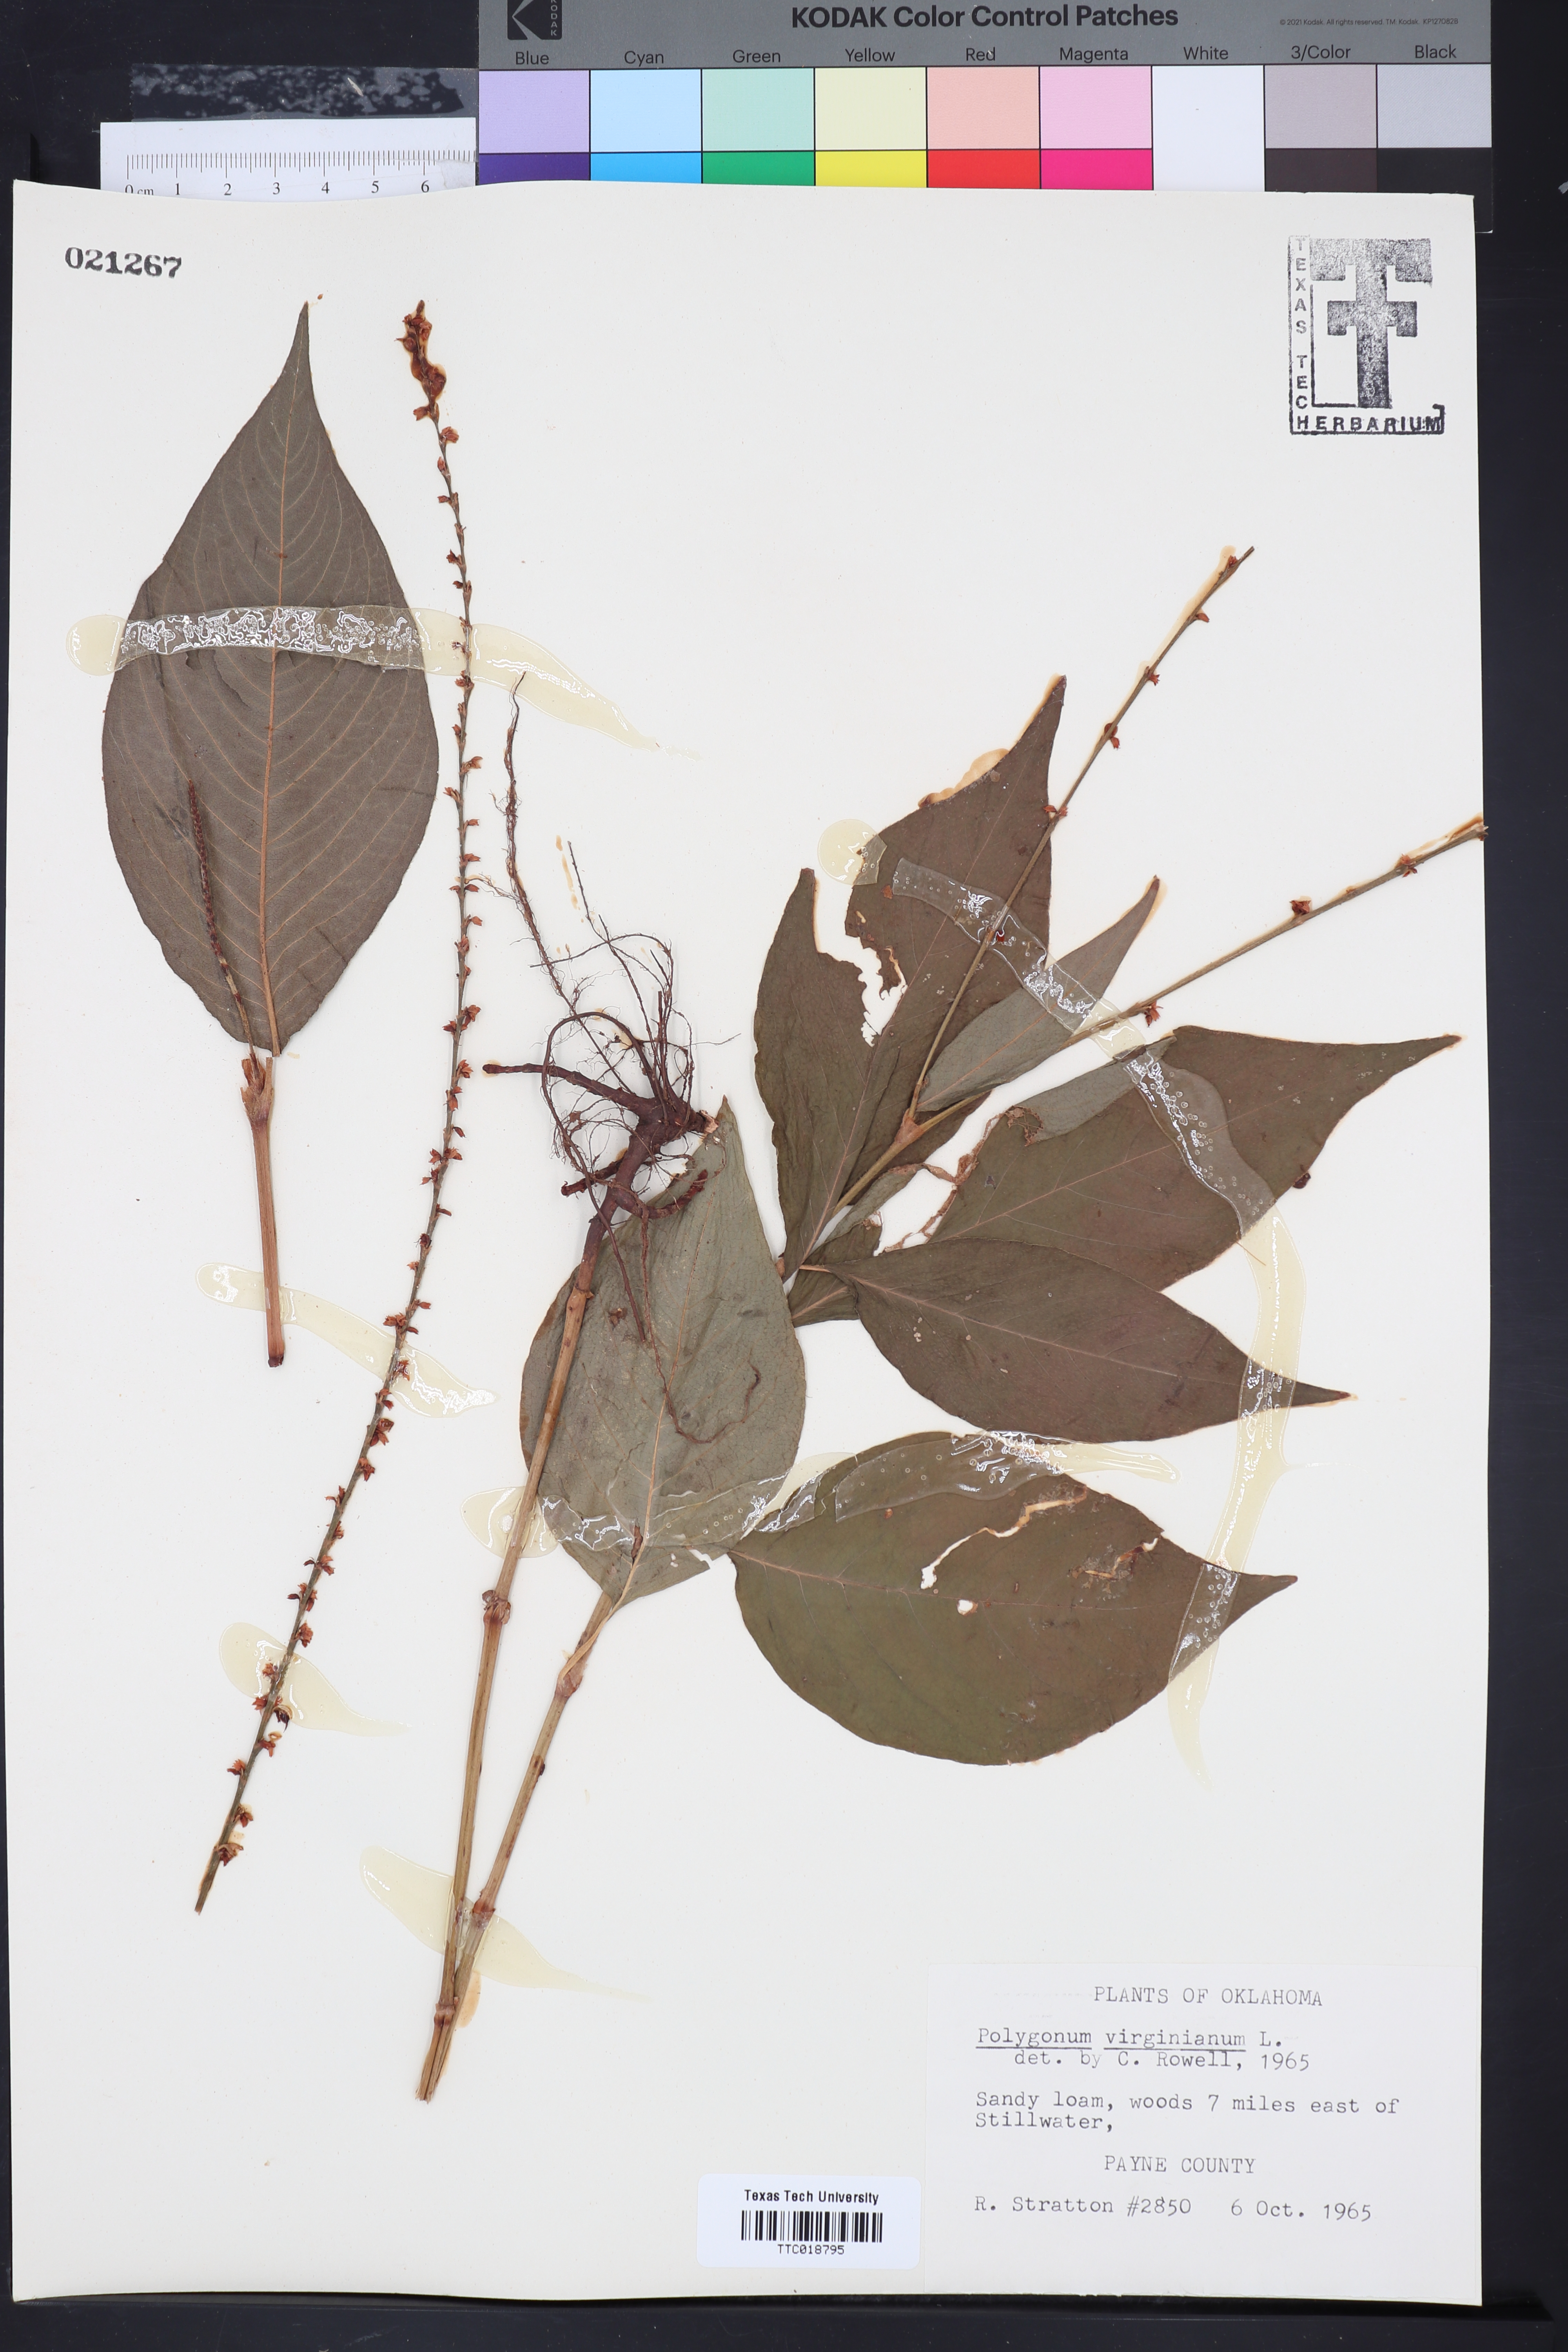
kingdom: Plantae
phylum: Tracheophyta
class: Magnoliopsida
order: Caryophyllales
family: Polygonaceae
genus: Persicaria
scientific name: Persicaria virginiana
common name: Jumpseed
